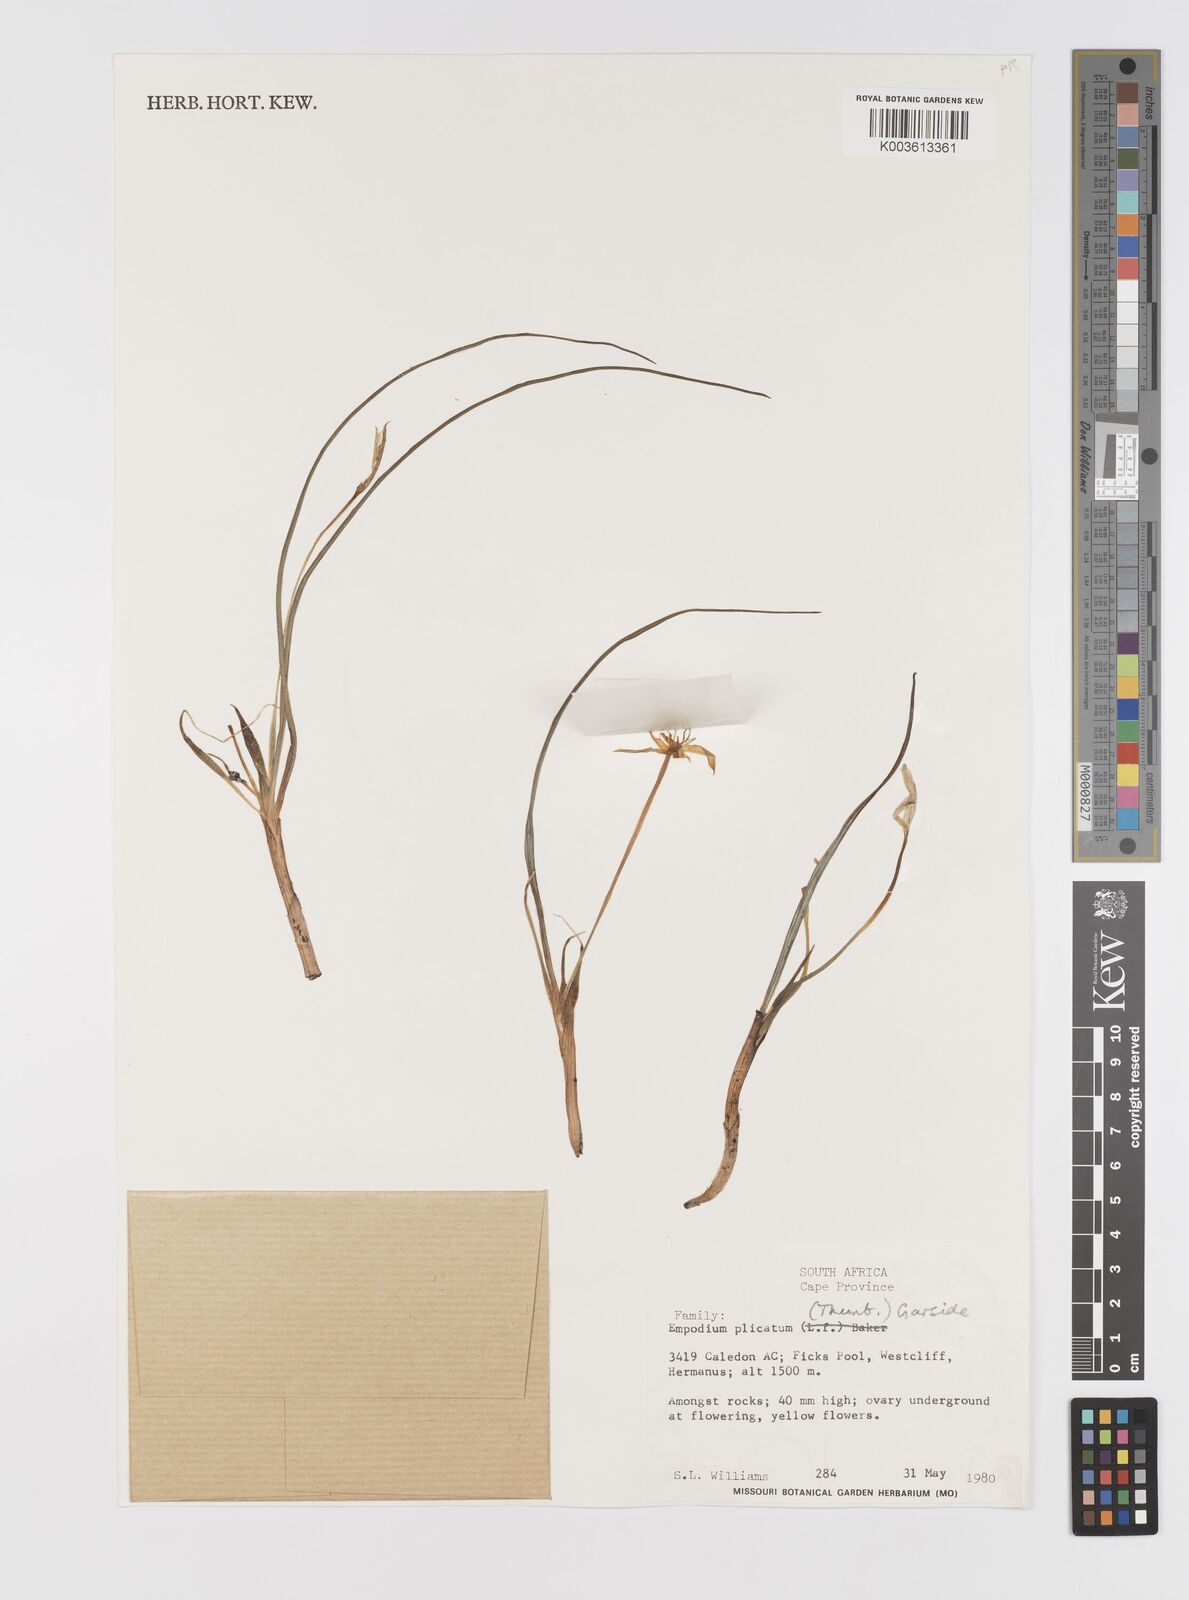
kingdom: Plantae
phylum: Tracheophyta
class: Liliopsida
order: Asparagales
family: Hypoxidaceae
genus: Empodium
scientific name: Empodium plicatum
